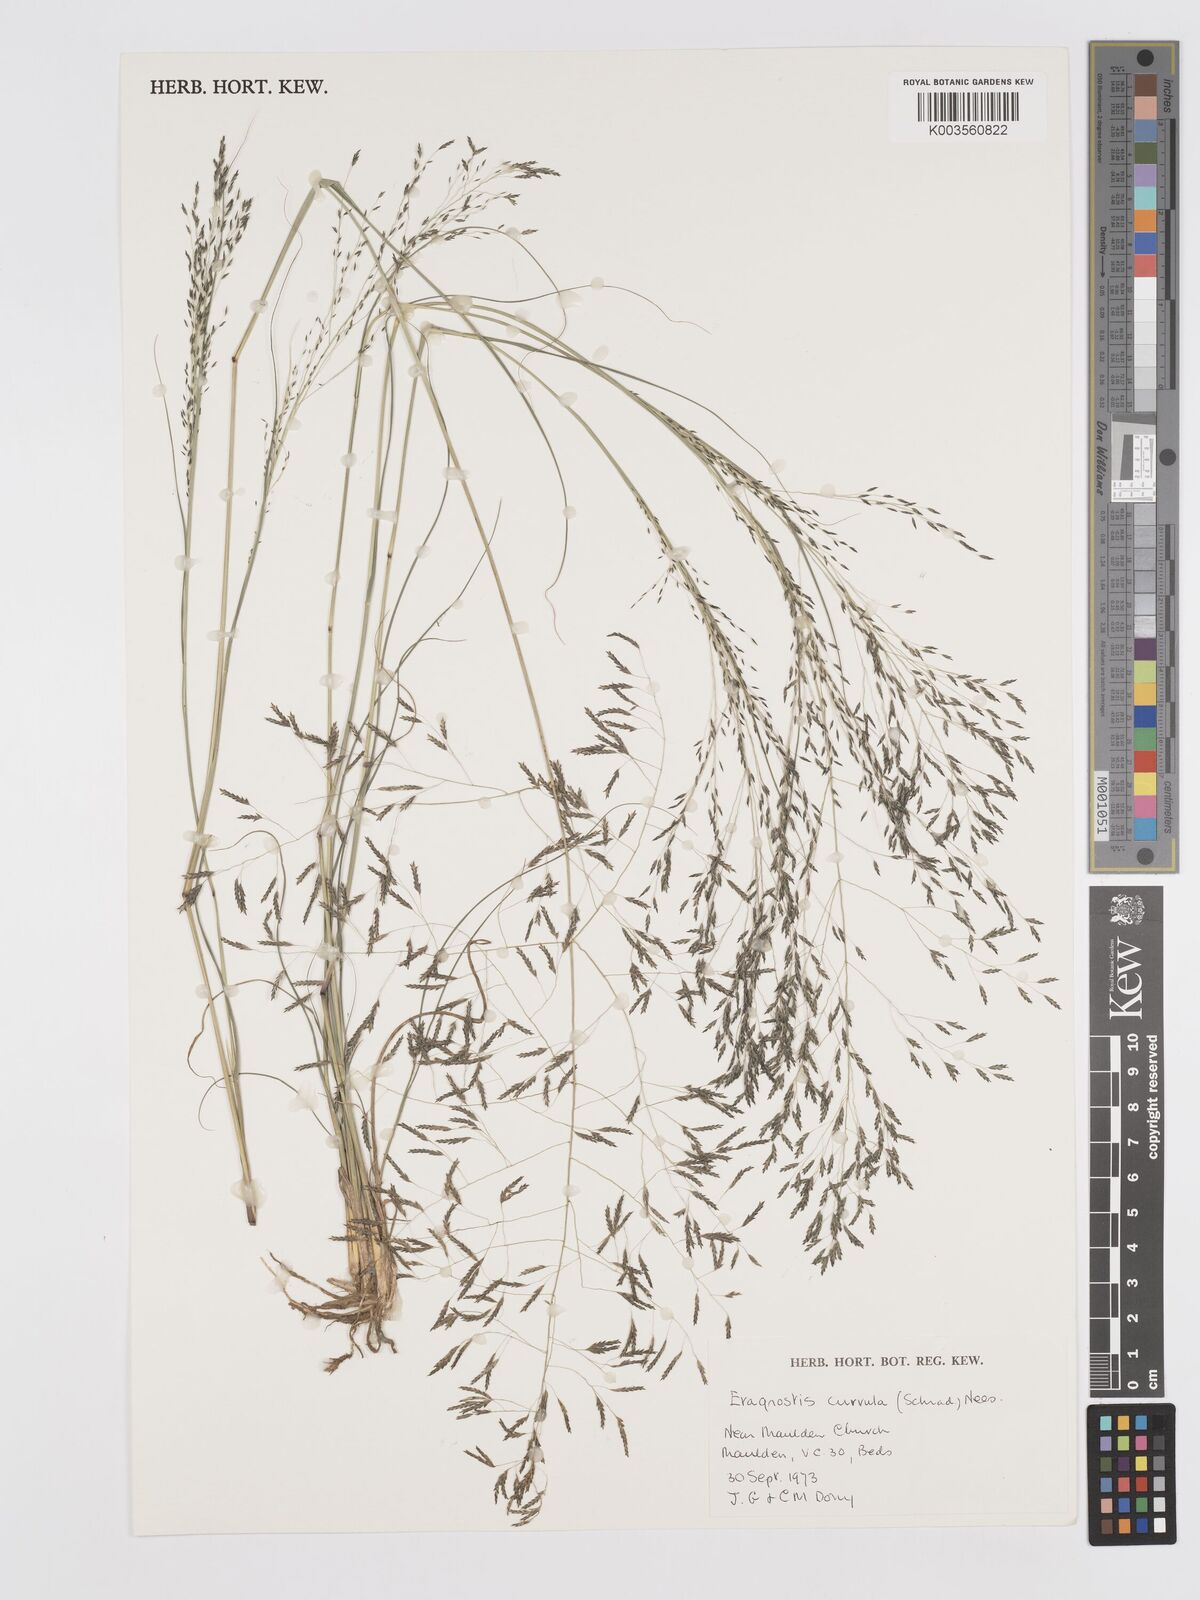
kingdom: Plantae
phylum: Tracheophyta
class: Liliopsida
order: Poales
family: Poaceae
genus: Eragrostis
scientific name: Eragrostis curvula
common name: African love-grass
